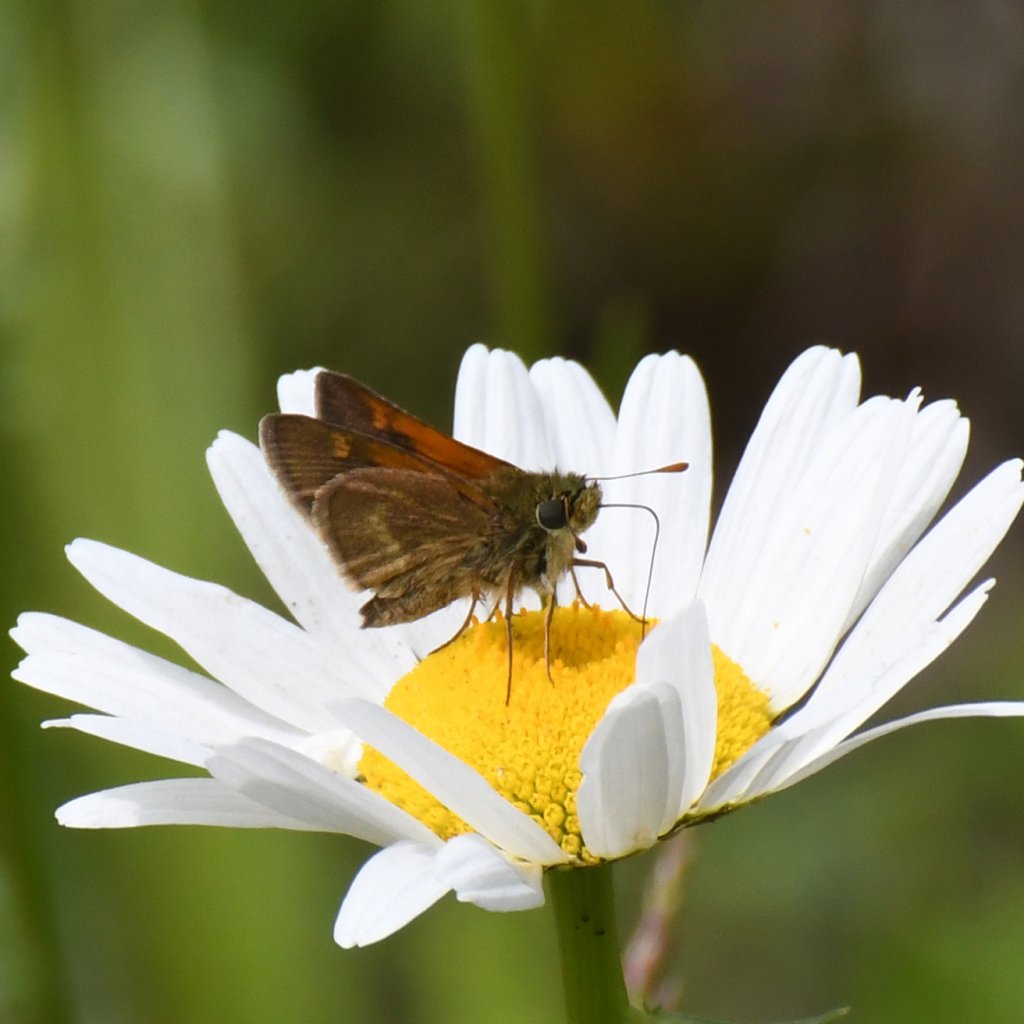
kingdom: Animalia
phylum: Arthropoda
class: Insecta
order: Lepidoptera
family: Hesperiidae
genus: Polites
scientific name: Polites themistocles
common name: Tawny-edged Skipper
